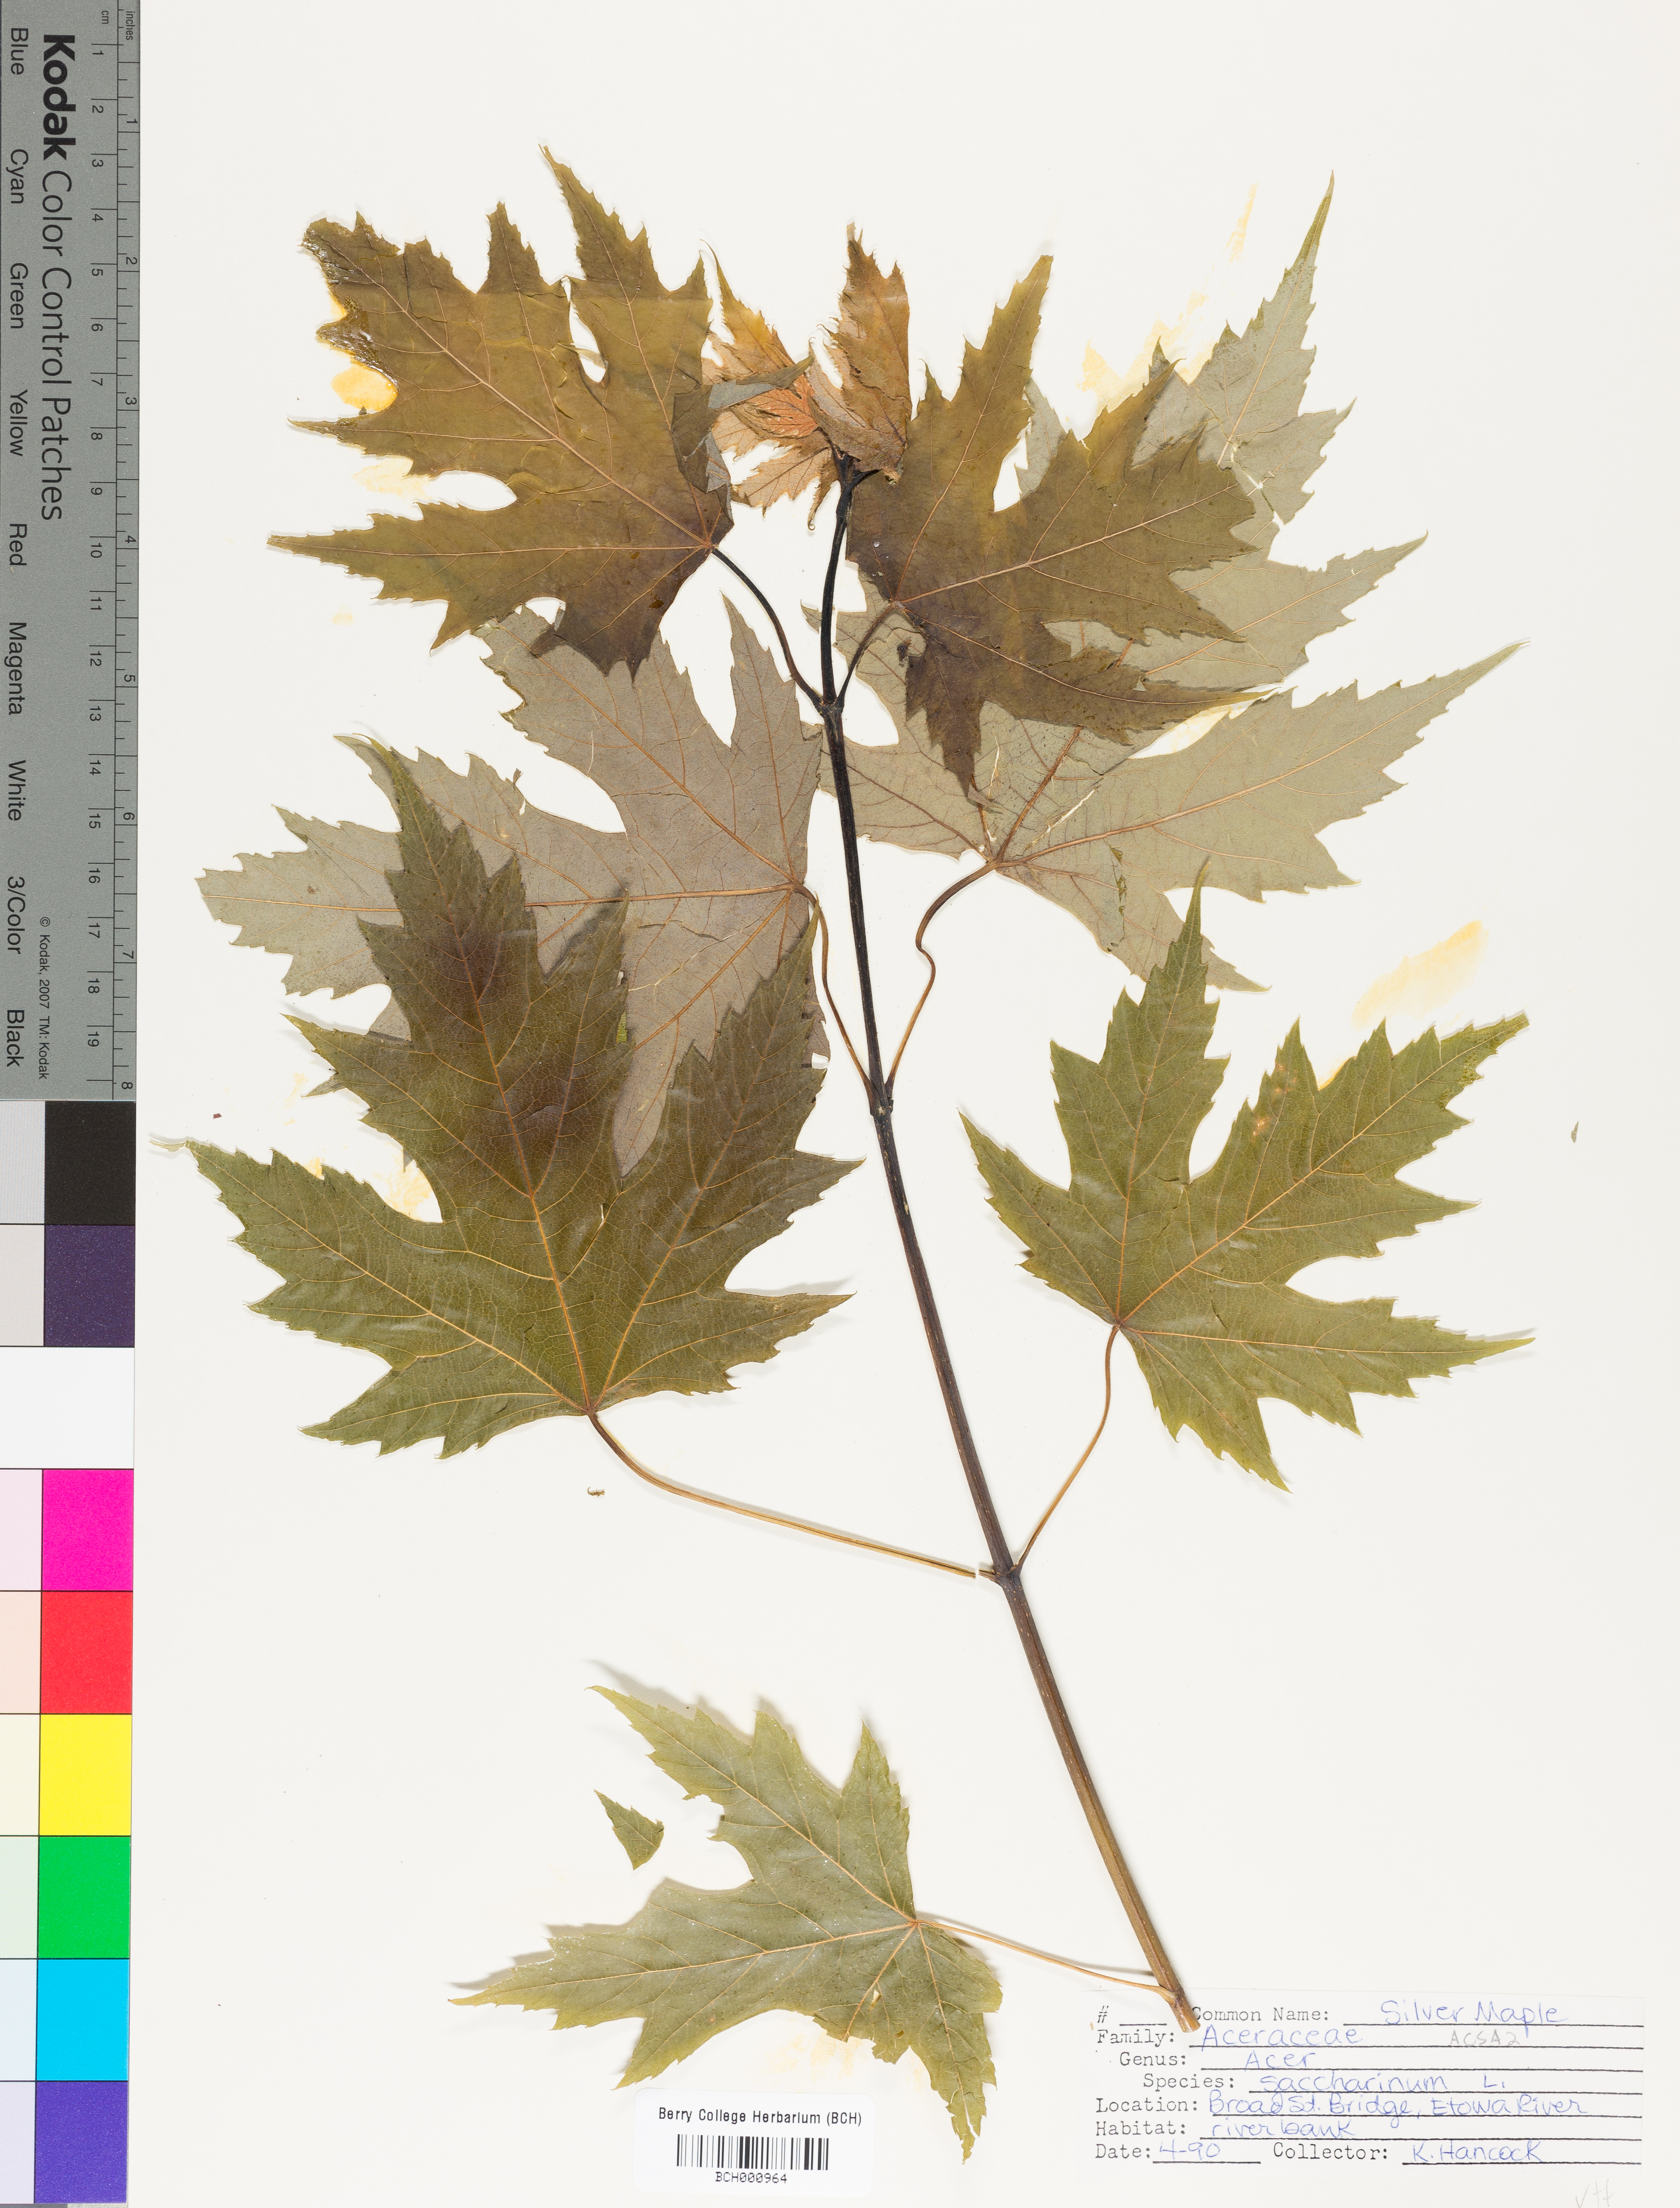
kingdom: Plantae
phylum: Tracheophyta
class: Magnoliopsida
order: Sapindales
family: Sapindaceae
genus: Acer
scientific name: Acer saccharinum
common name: Silver maple
